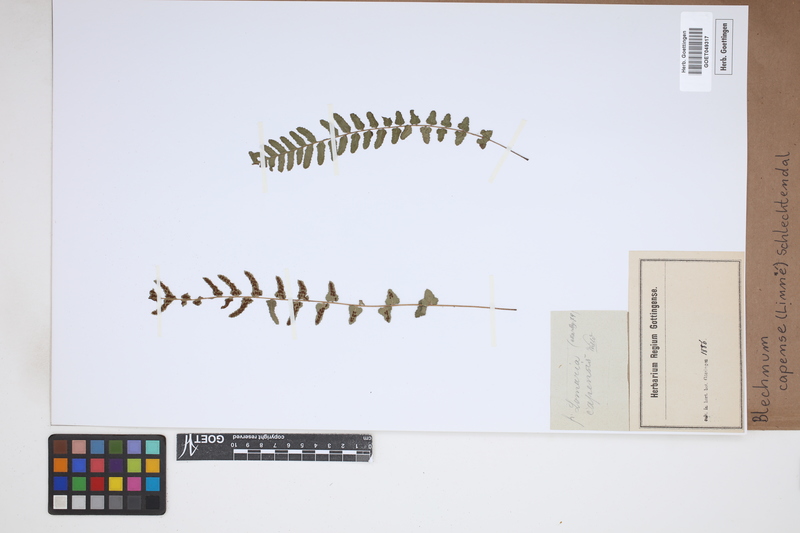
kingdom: Plantae
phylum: Tracheophyta
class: Polypodiopsida
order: Polypodiales
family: Blechnaceae
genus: Parablechnum
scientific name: Parablechnum capense
